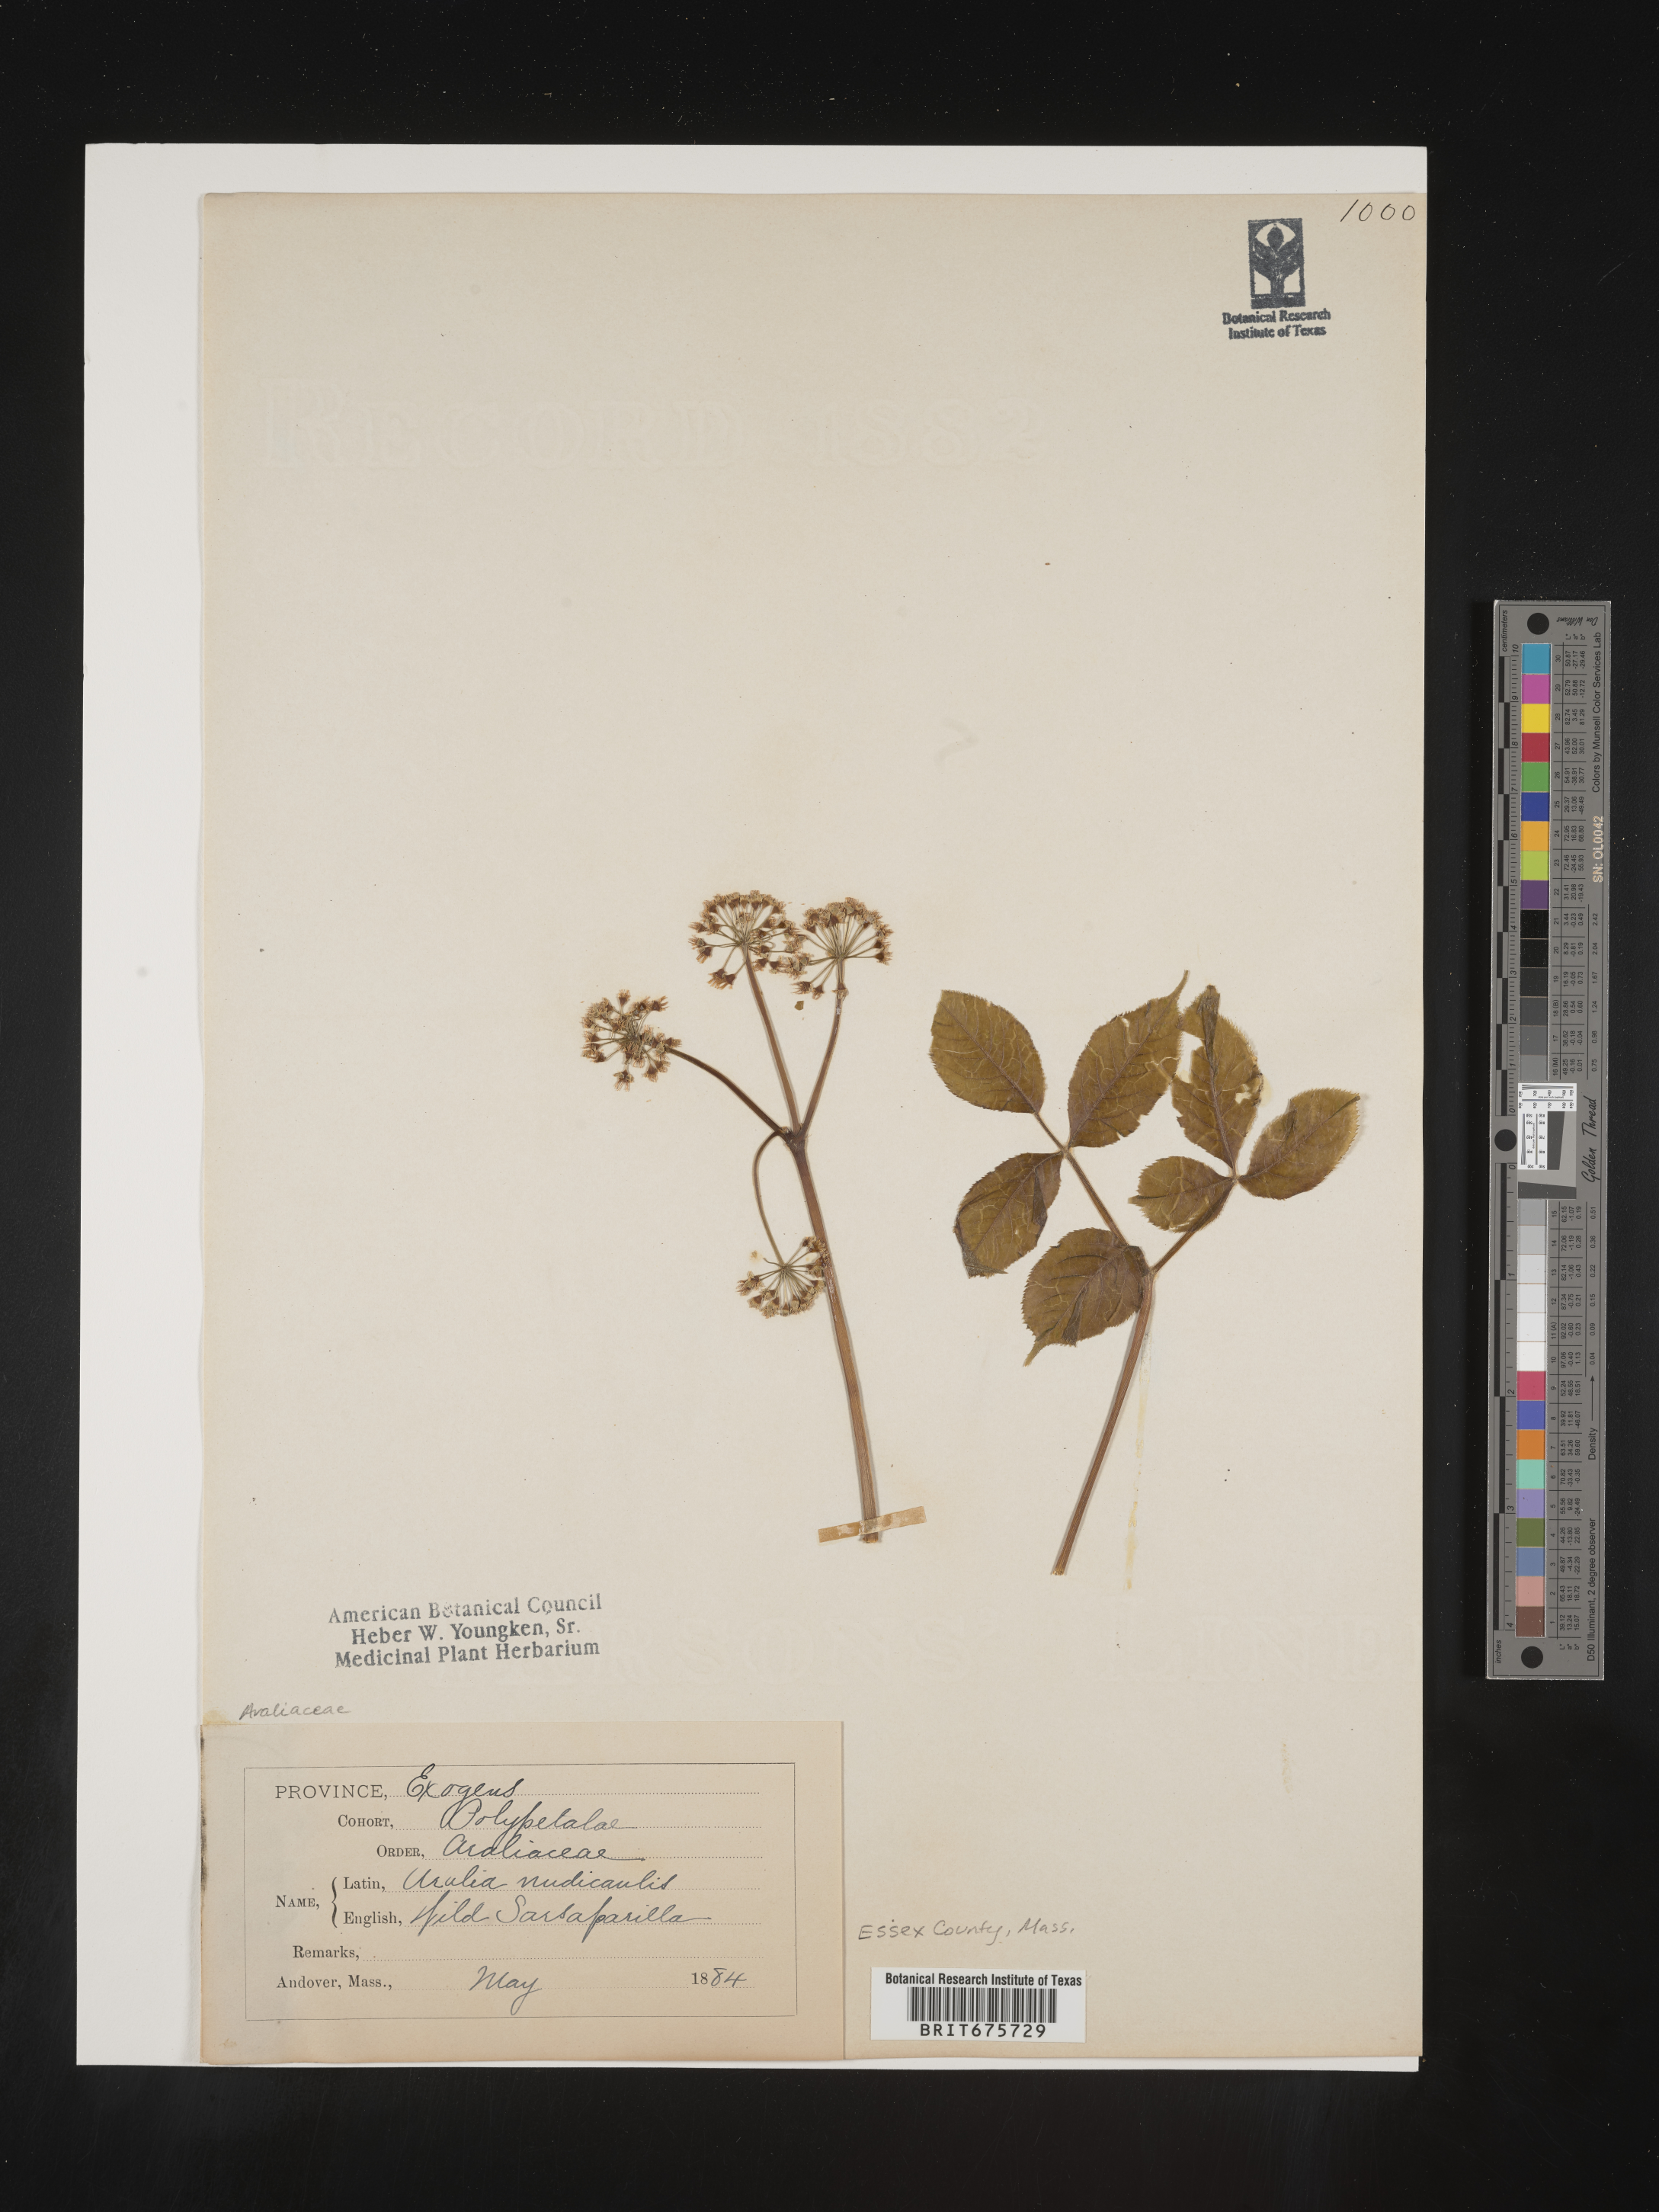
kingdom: Plantae
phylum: Tracheophyta
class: Magnoliopsida
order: Apiales
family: Araliaceae
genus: Aralia
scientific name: Aralia nudicaulis
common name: Wild sarsaparilla
